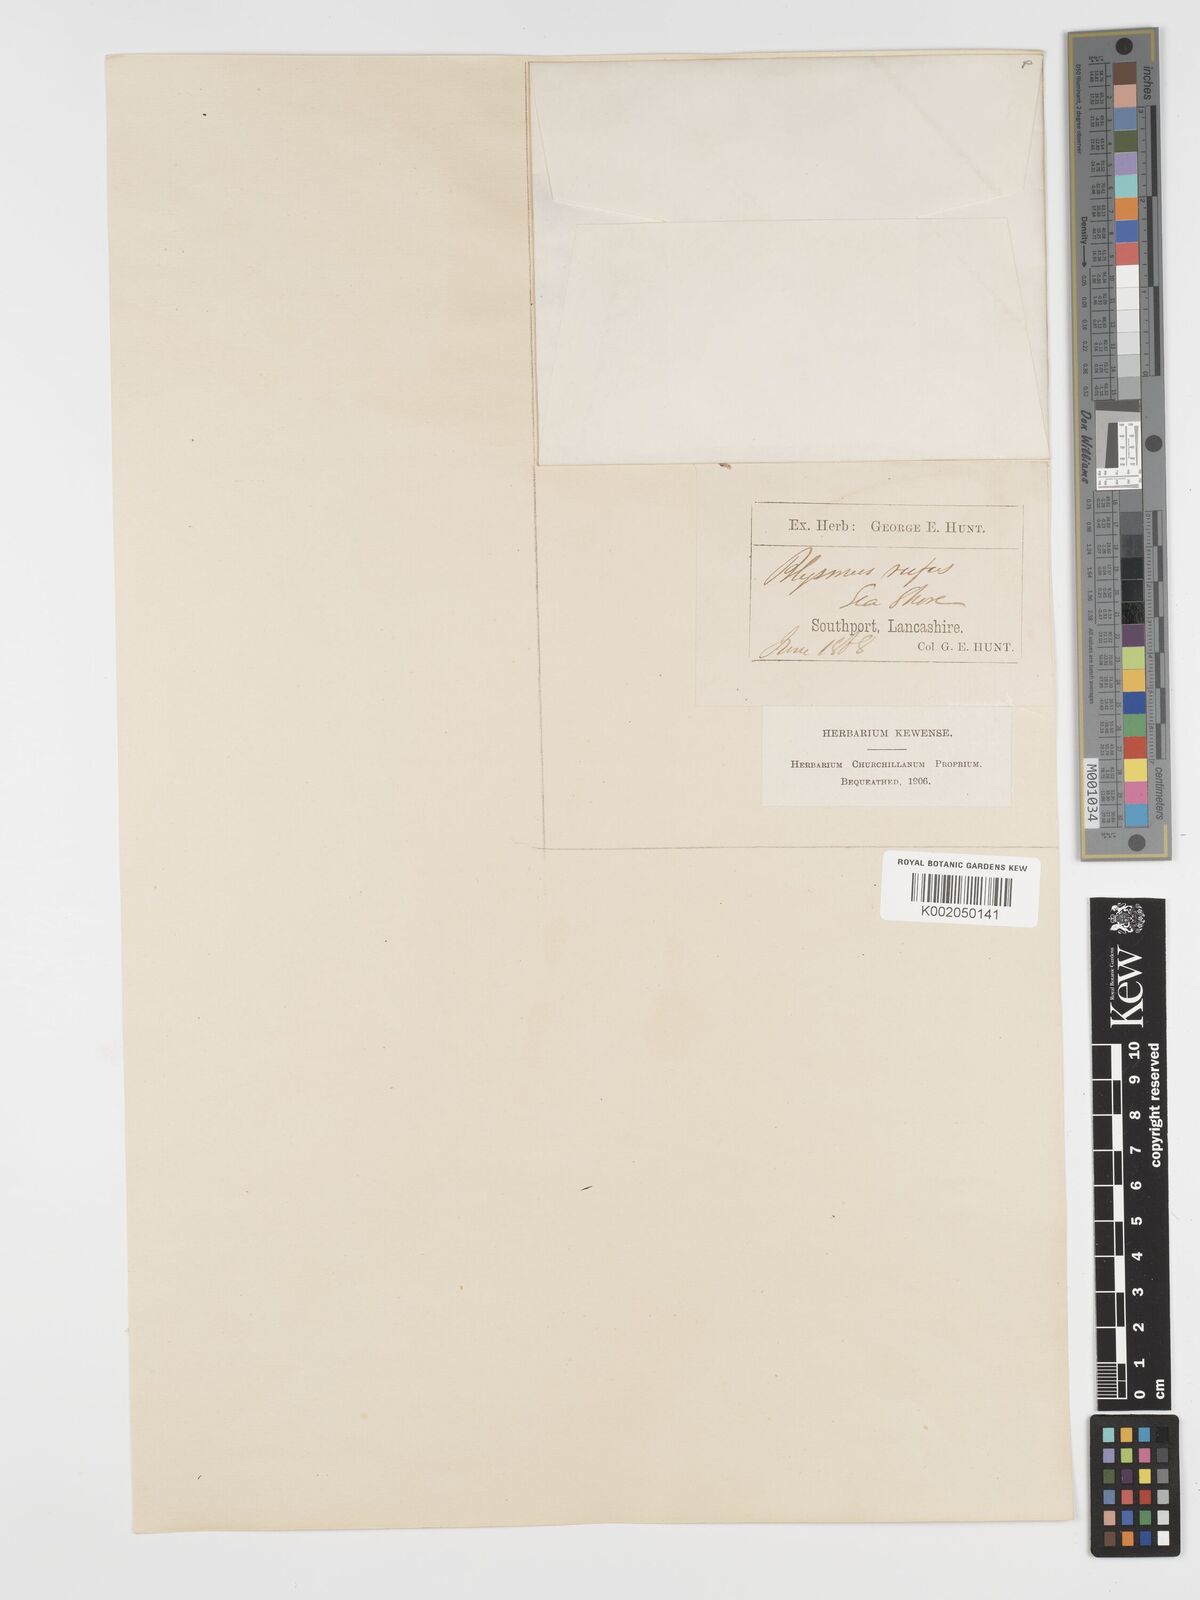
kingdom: Plantae
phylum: Tracheophyta
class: Liliopsida
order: Poales
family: Cyperaceae
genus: Blysmus
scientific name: Blysmus rufus
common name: Saltmarsh flat-sedge
